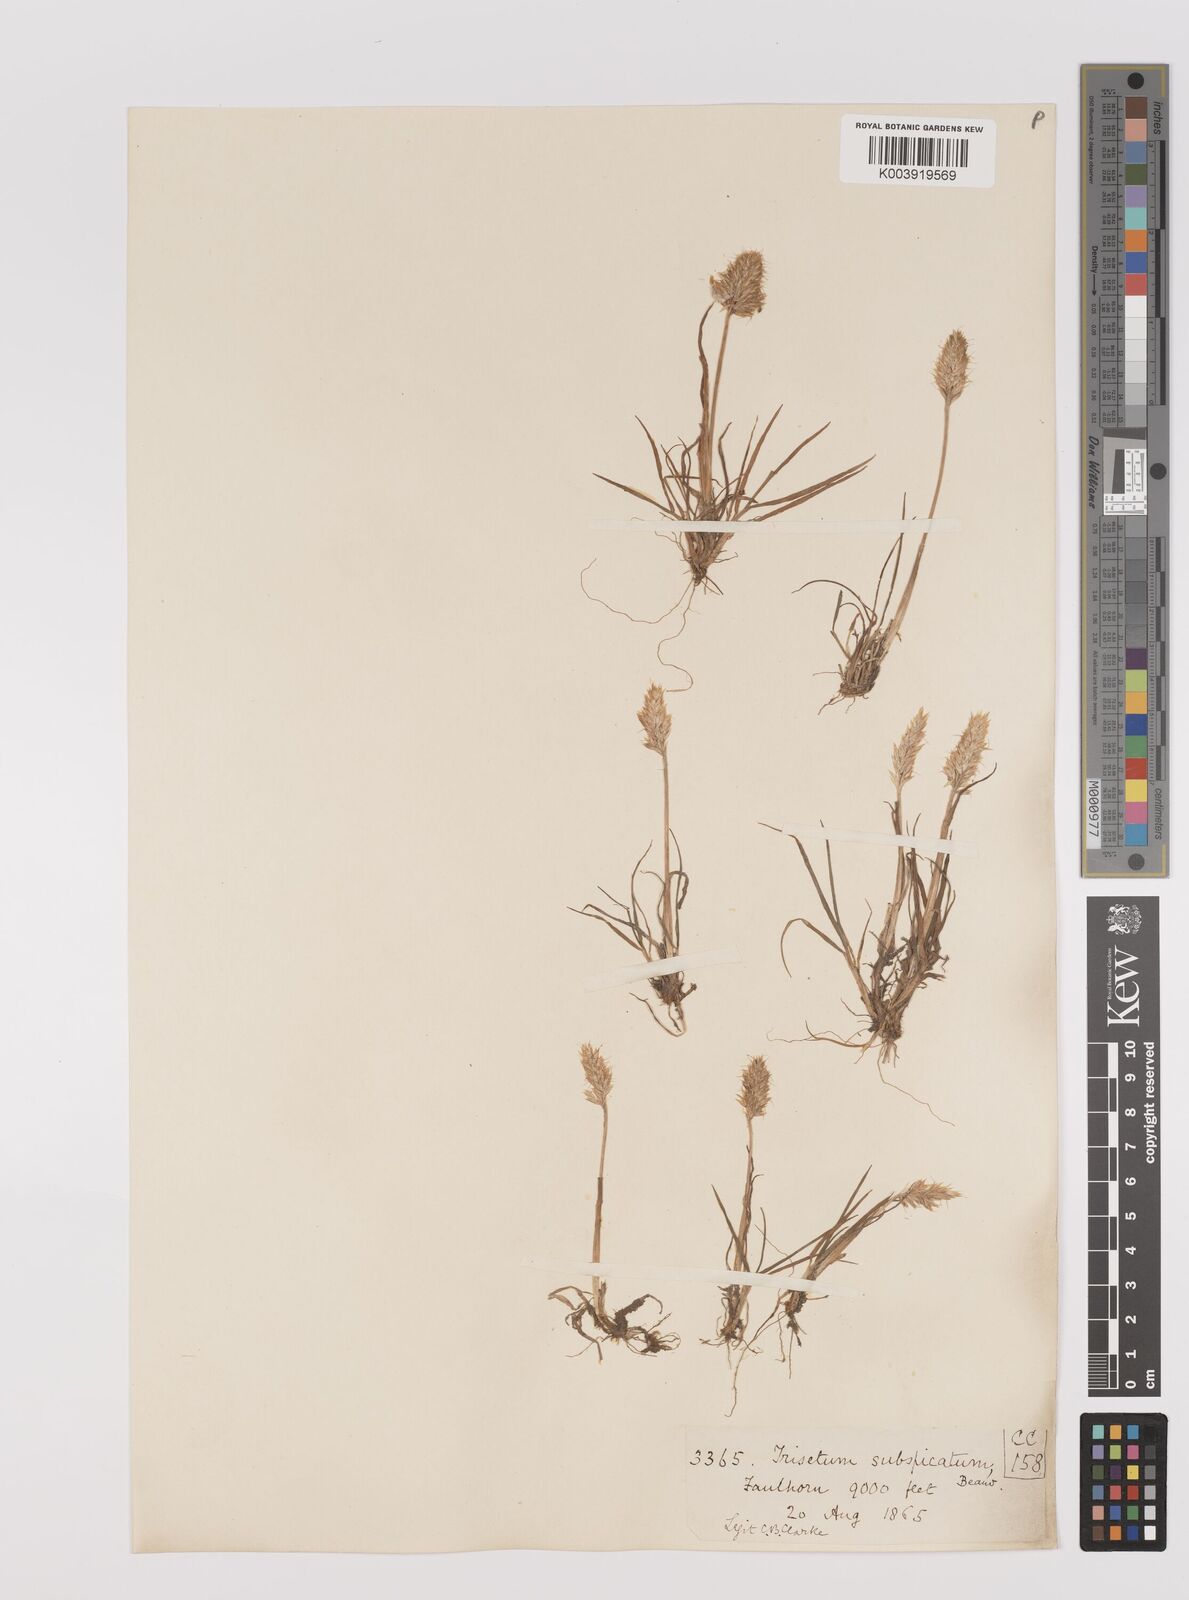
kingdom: Plantae
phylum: Tracheophyta
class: Liliopsida
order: Poales
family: Poaceae
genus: Koeleria
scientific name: Koeleria spicata
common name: Mountain trisetum
